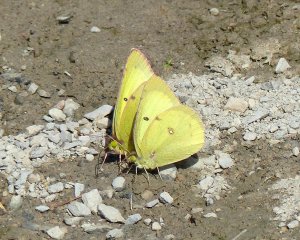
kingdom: Animalia
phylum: Arthropoda
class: Insecta
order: Lepidoptera
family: Pieridae
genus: Colias
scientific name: Colias philodice
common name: Clouded Sulphur
